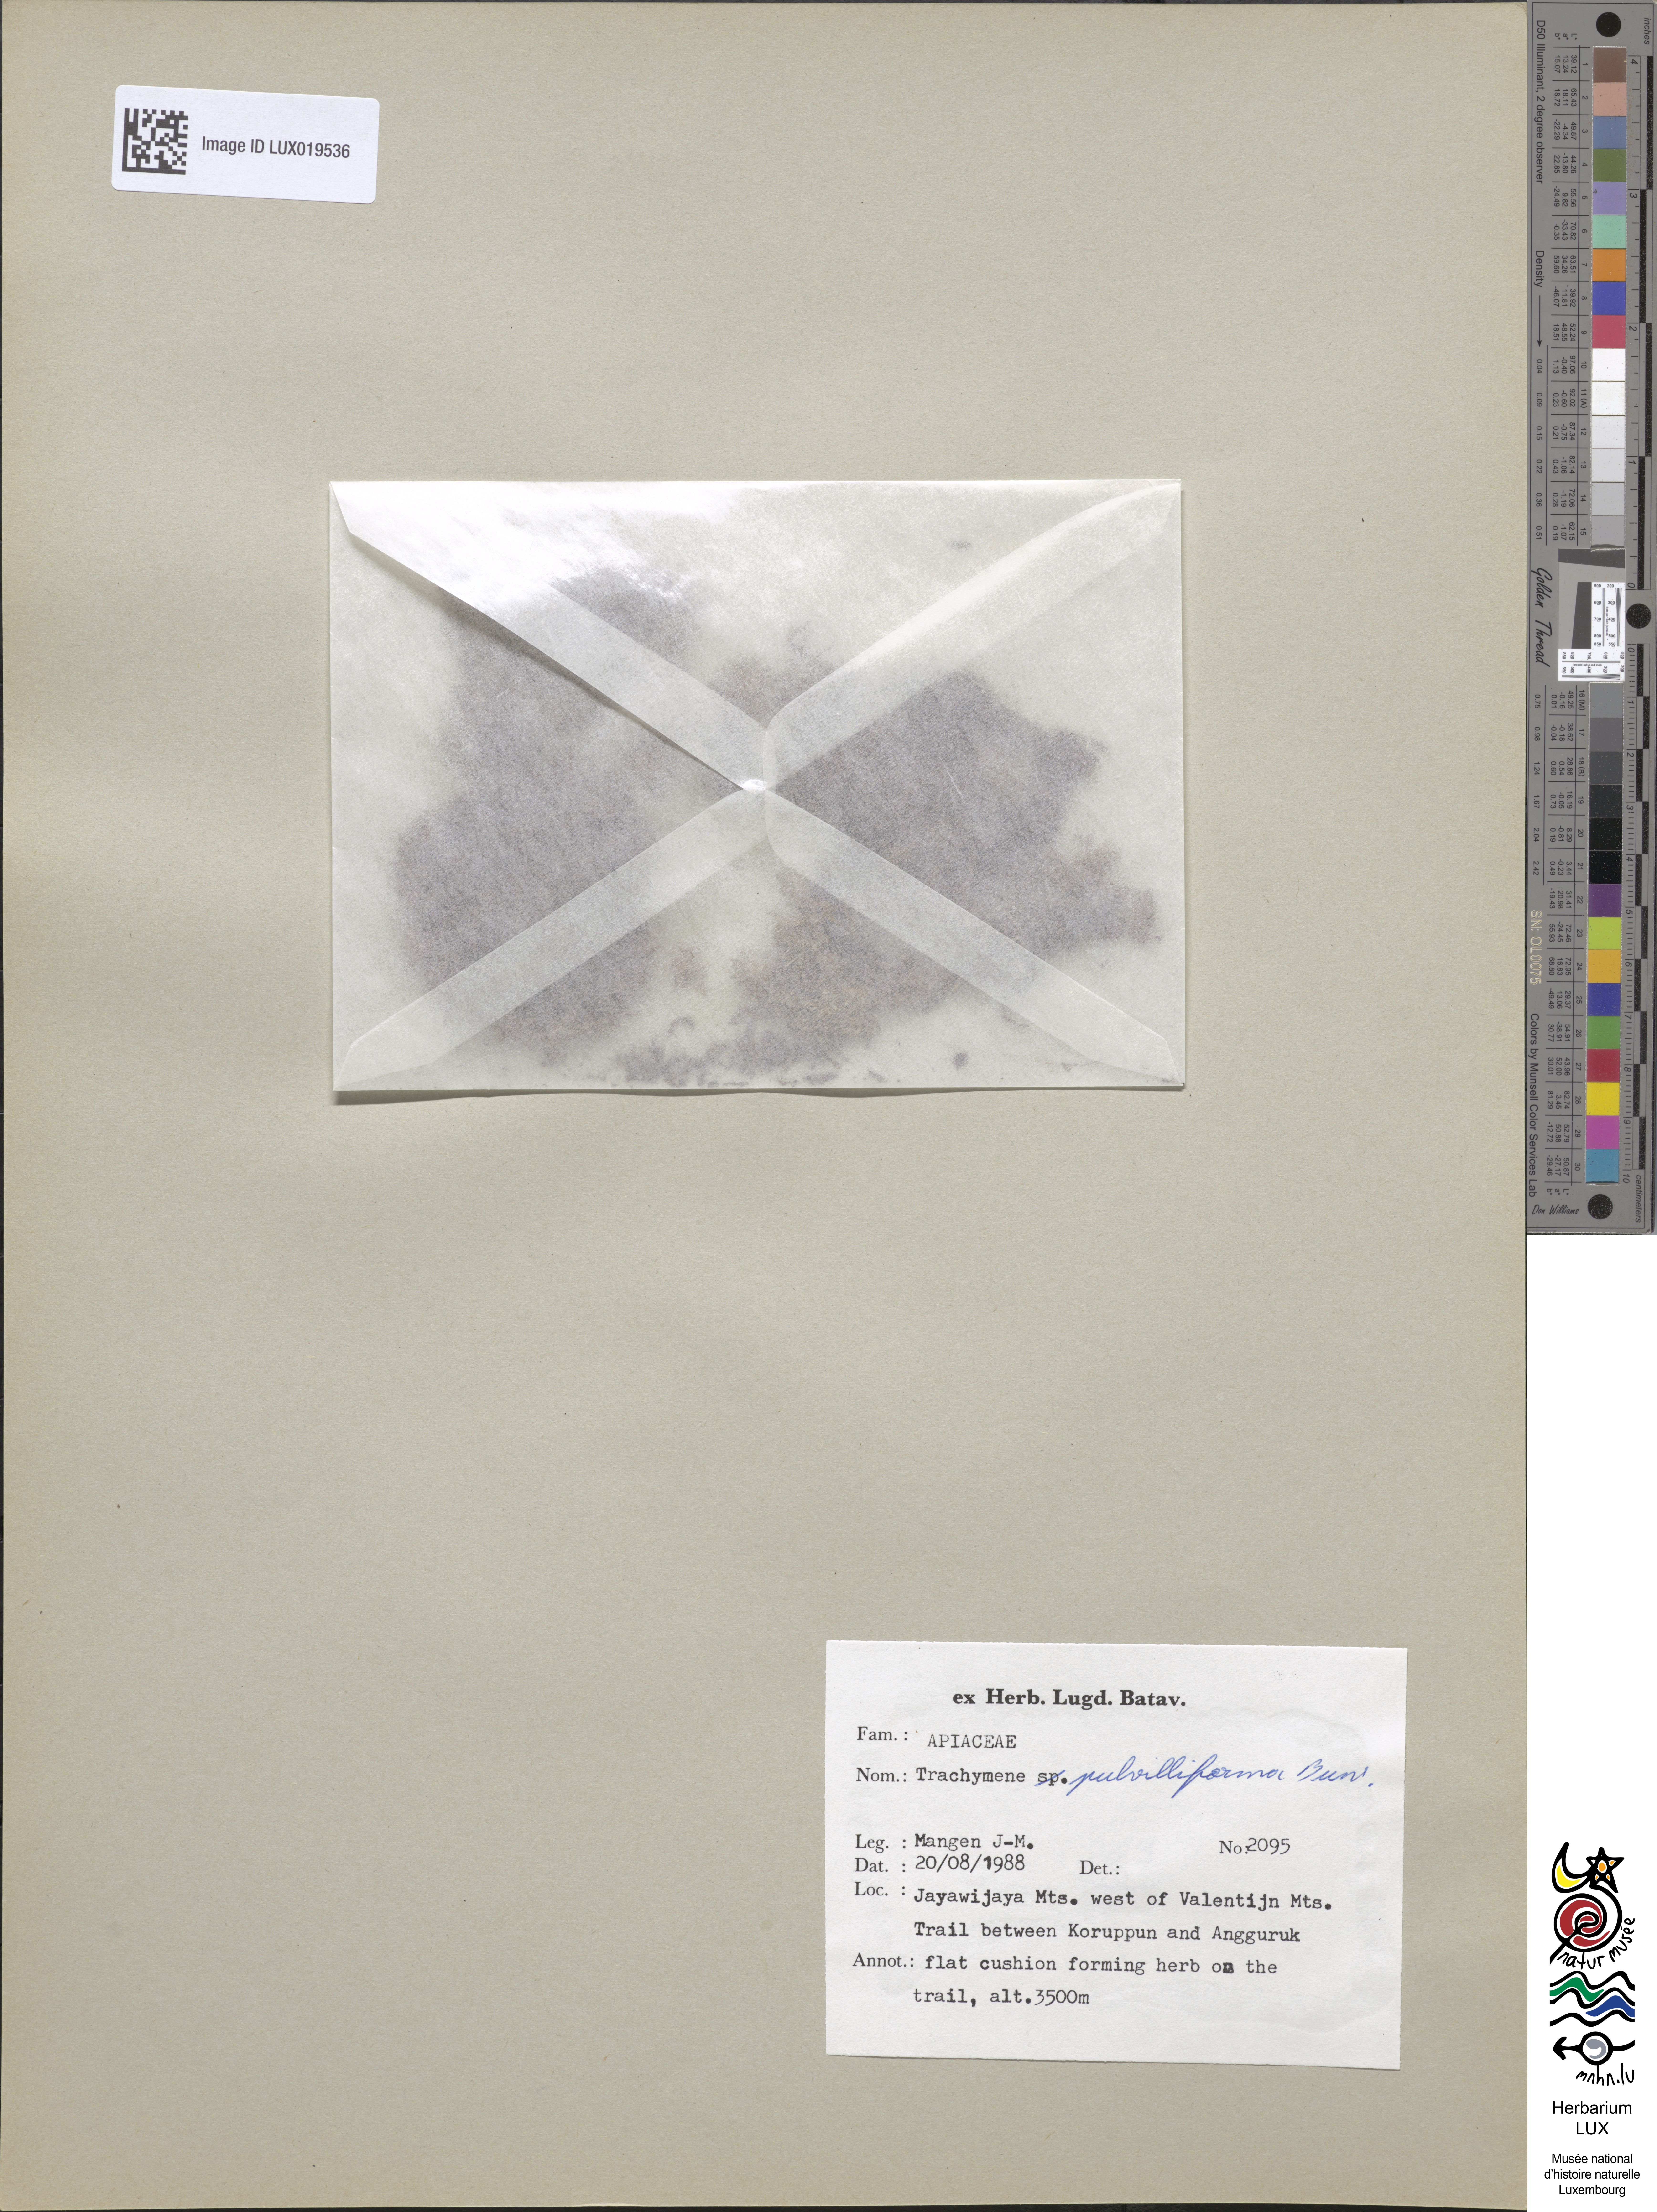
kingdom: Plantae
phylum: Tracheophyta
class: Magnoliopsida
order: Apiales
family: Araliaceae
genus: Trachymene
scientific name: Trachymene pulvilliforma
